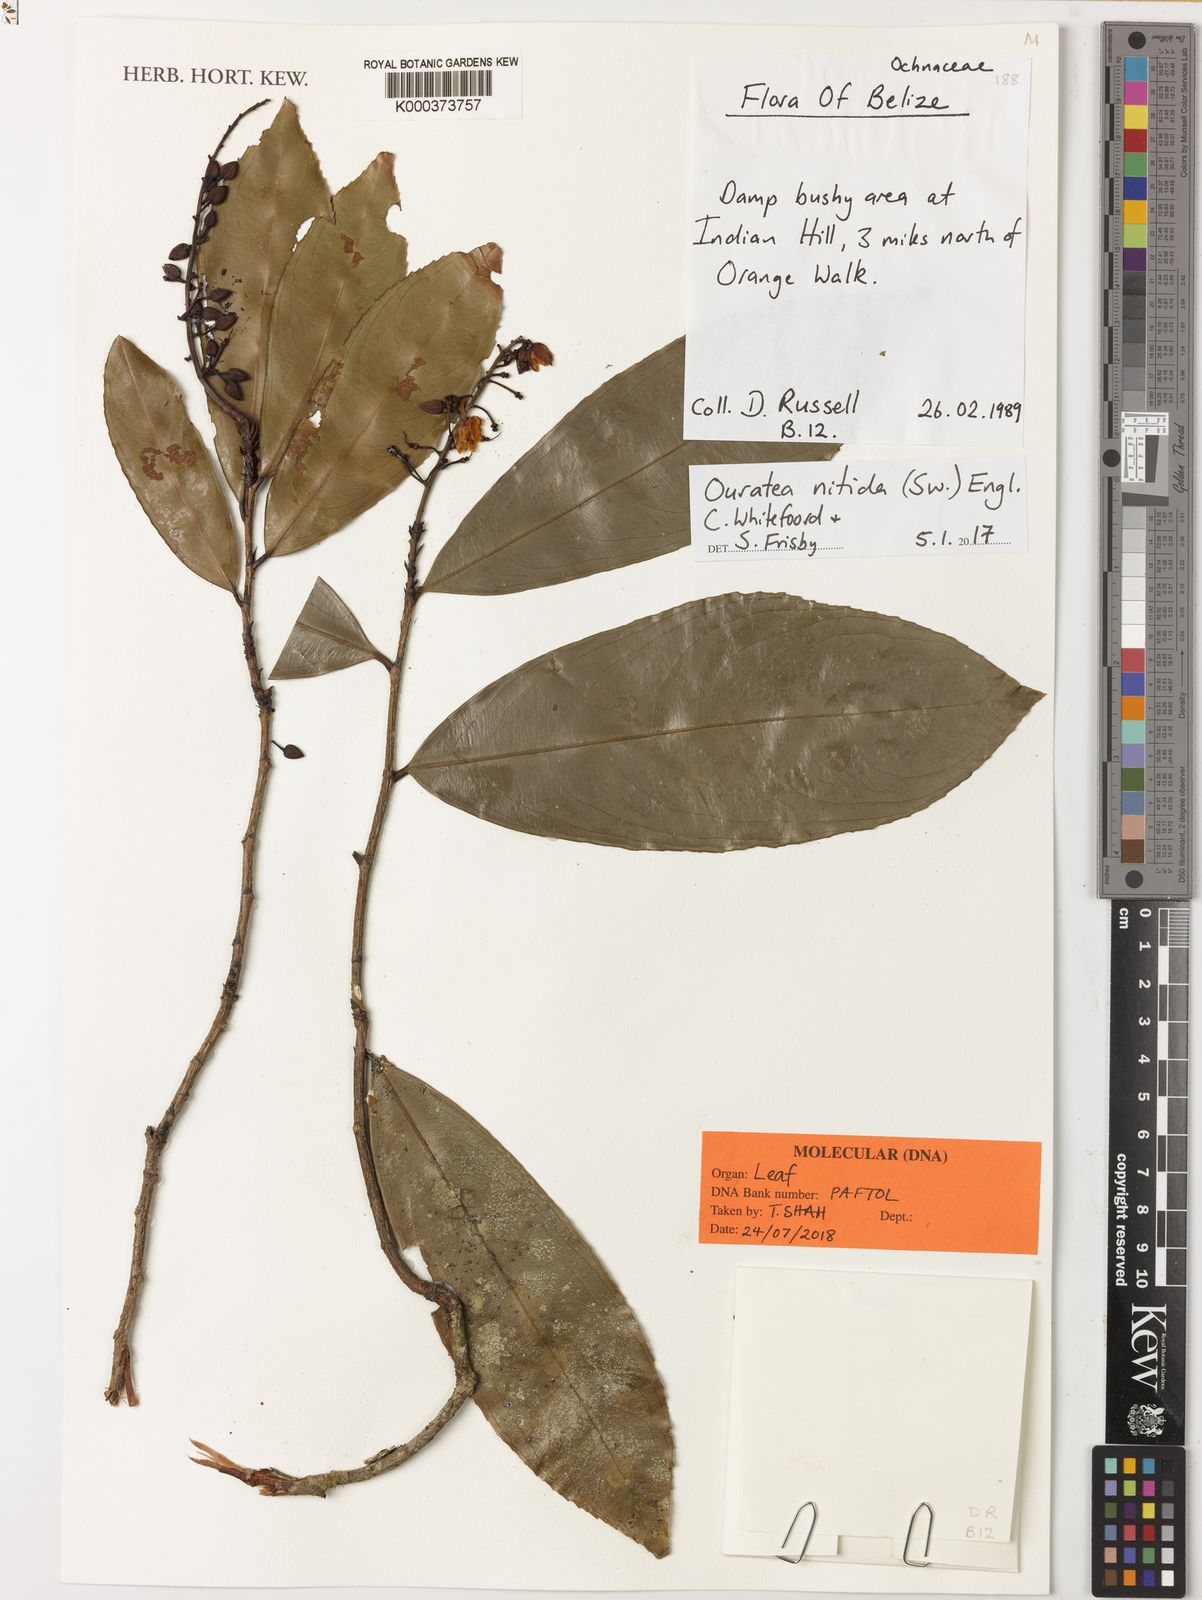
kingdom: Plantae
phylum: Tracheophyta
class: Magnoliopsida
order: Malpighiales
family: Ochnaceae
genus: Ouratea
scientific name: Ouratea nitida
